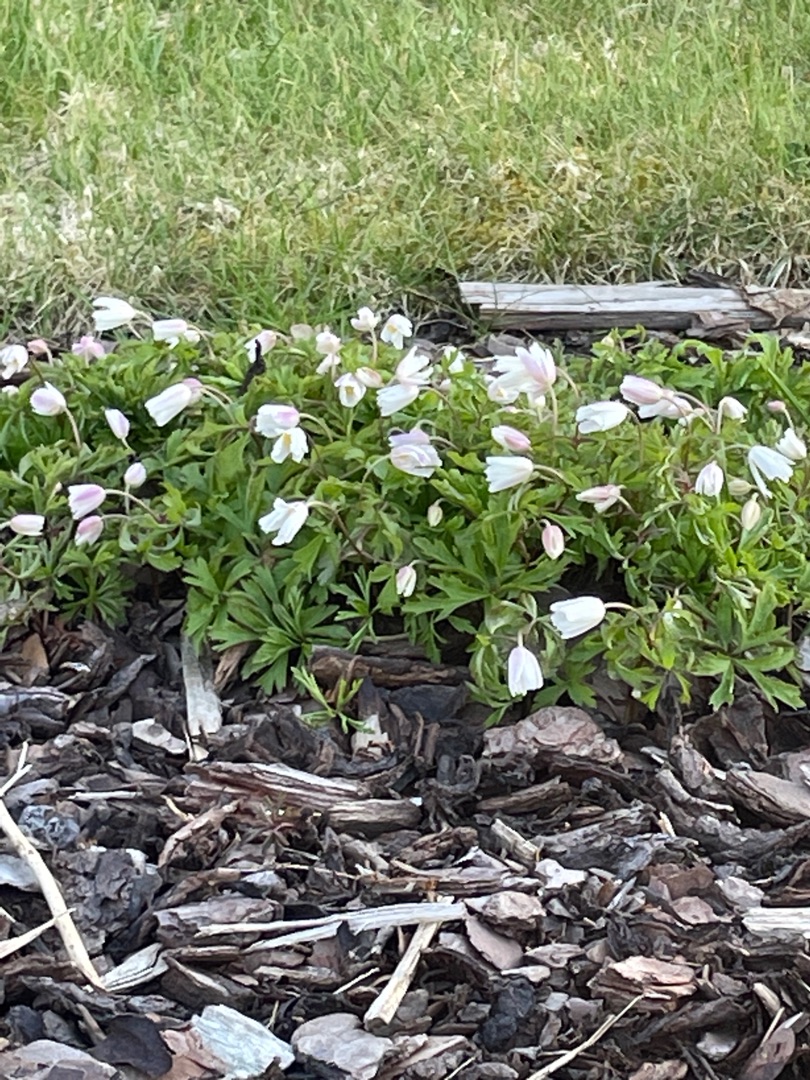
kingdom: Plantae
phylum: Tracheophyta
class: Magnoliopsida
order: Ranunculales
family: Ranunculaceae
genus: Anemone
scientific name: Anemone nemorosa
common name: Hvid anemone
